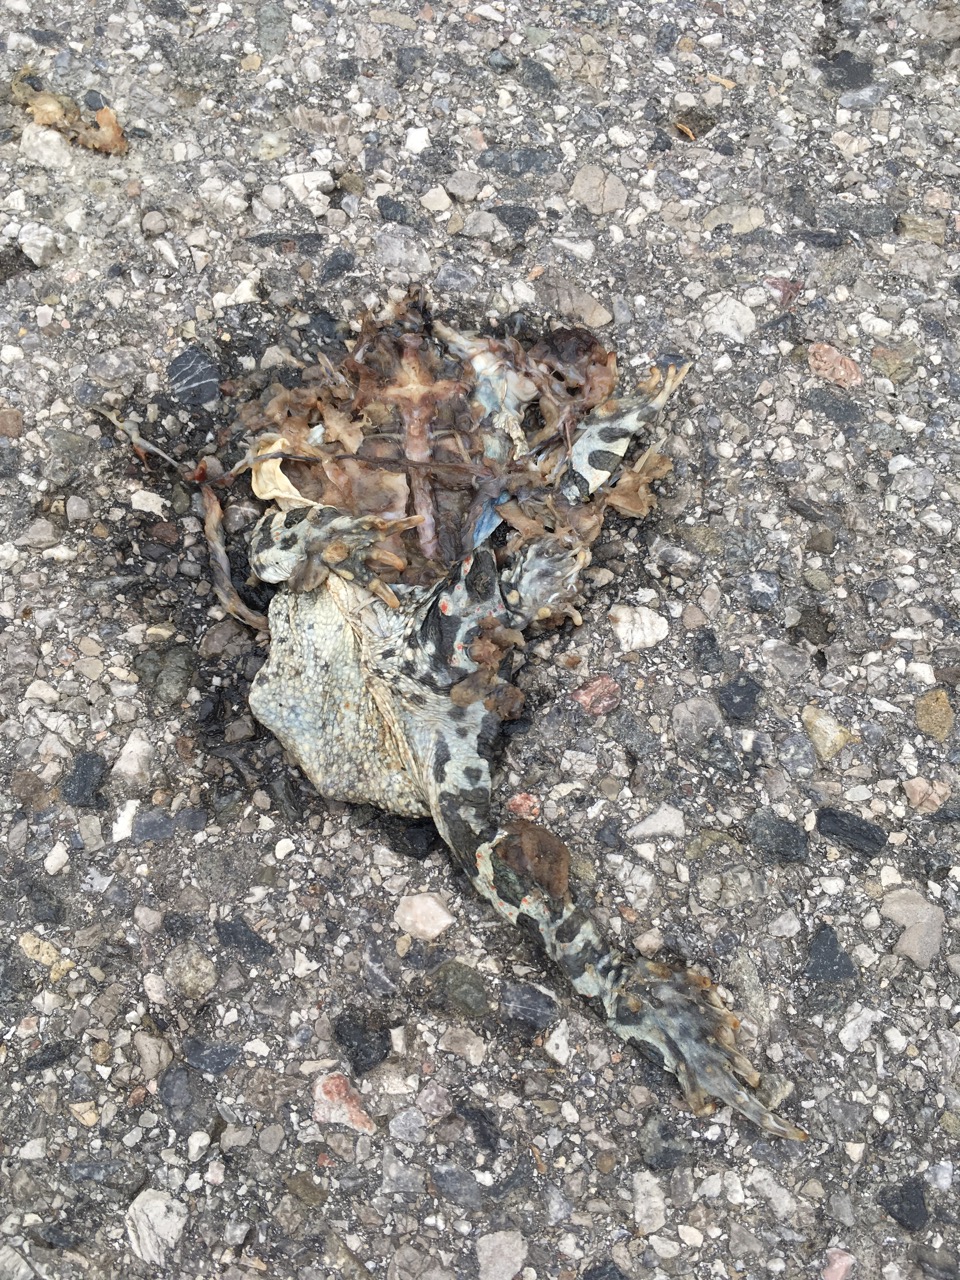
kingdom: Animalia
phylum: Chordata
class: Amphibia
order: Anura
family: Bufonidae
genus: Bufotes
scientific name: Bufotes viridis
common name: European green toad
